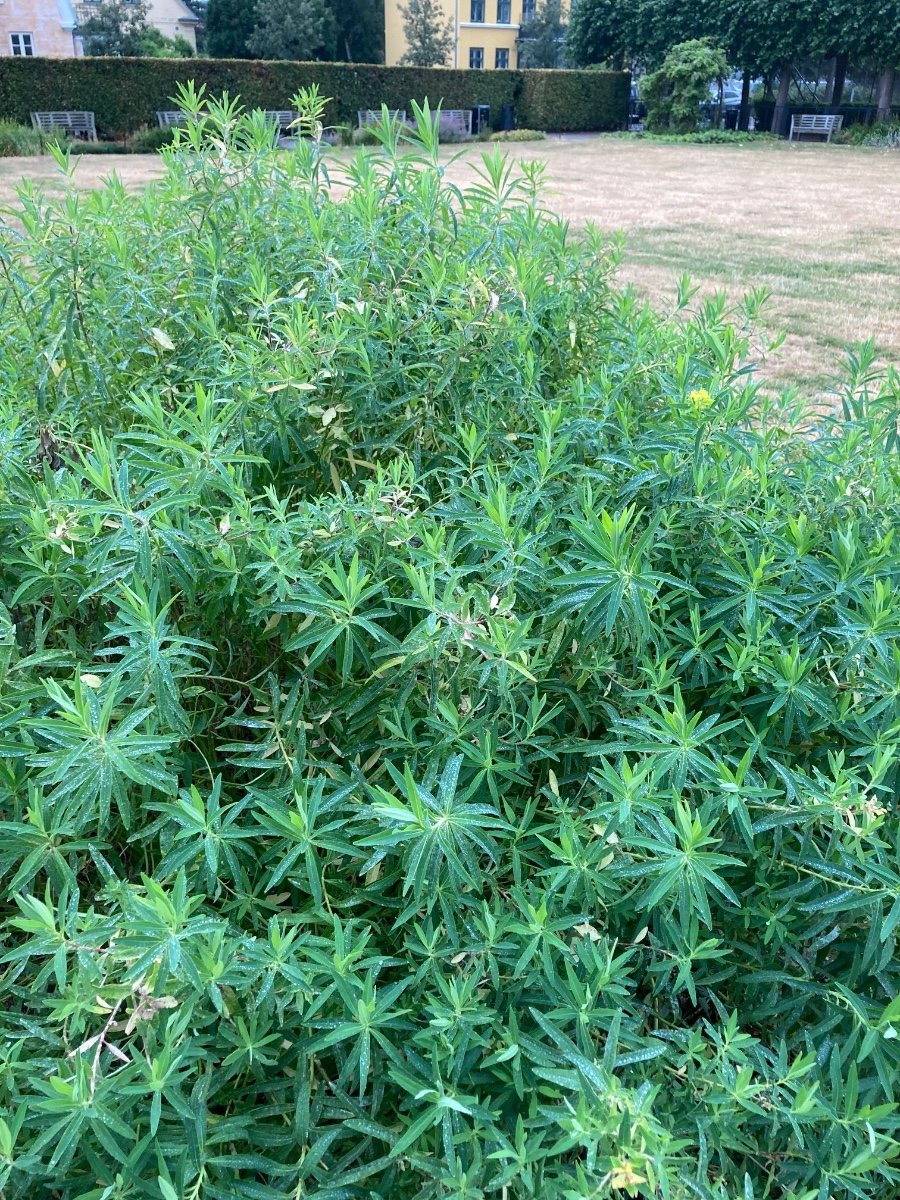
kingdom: Fungi
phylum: Ascomycota
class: Leotiomycetes
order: Helotiales
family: Erysiphaceae
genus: Podosphaera
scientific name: Podosphaera euphorbiae
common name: Eurasian poinsettia powdery mildew
